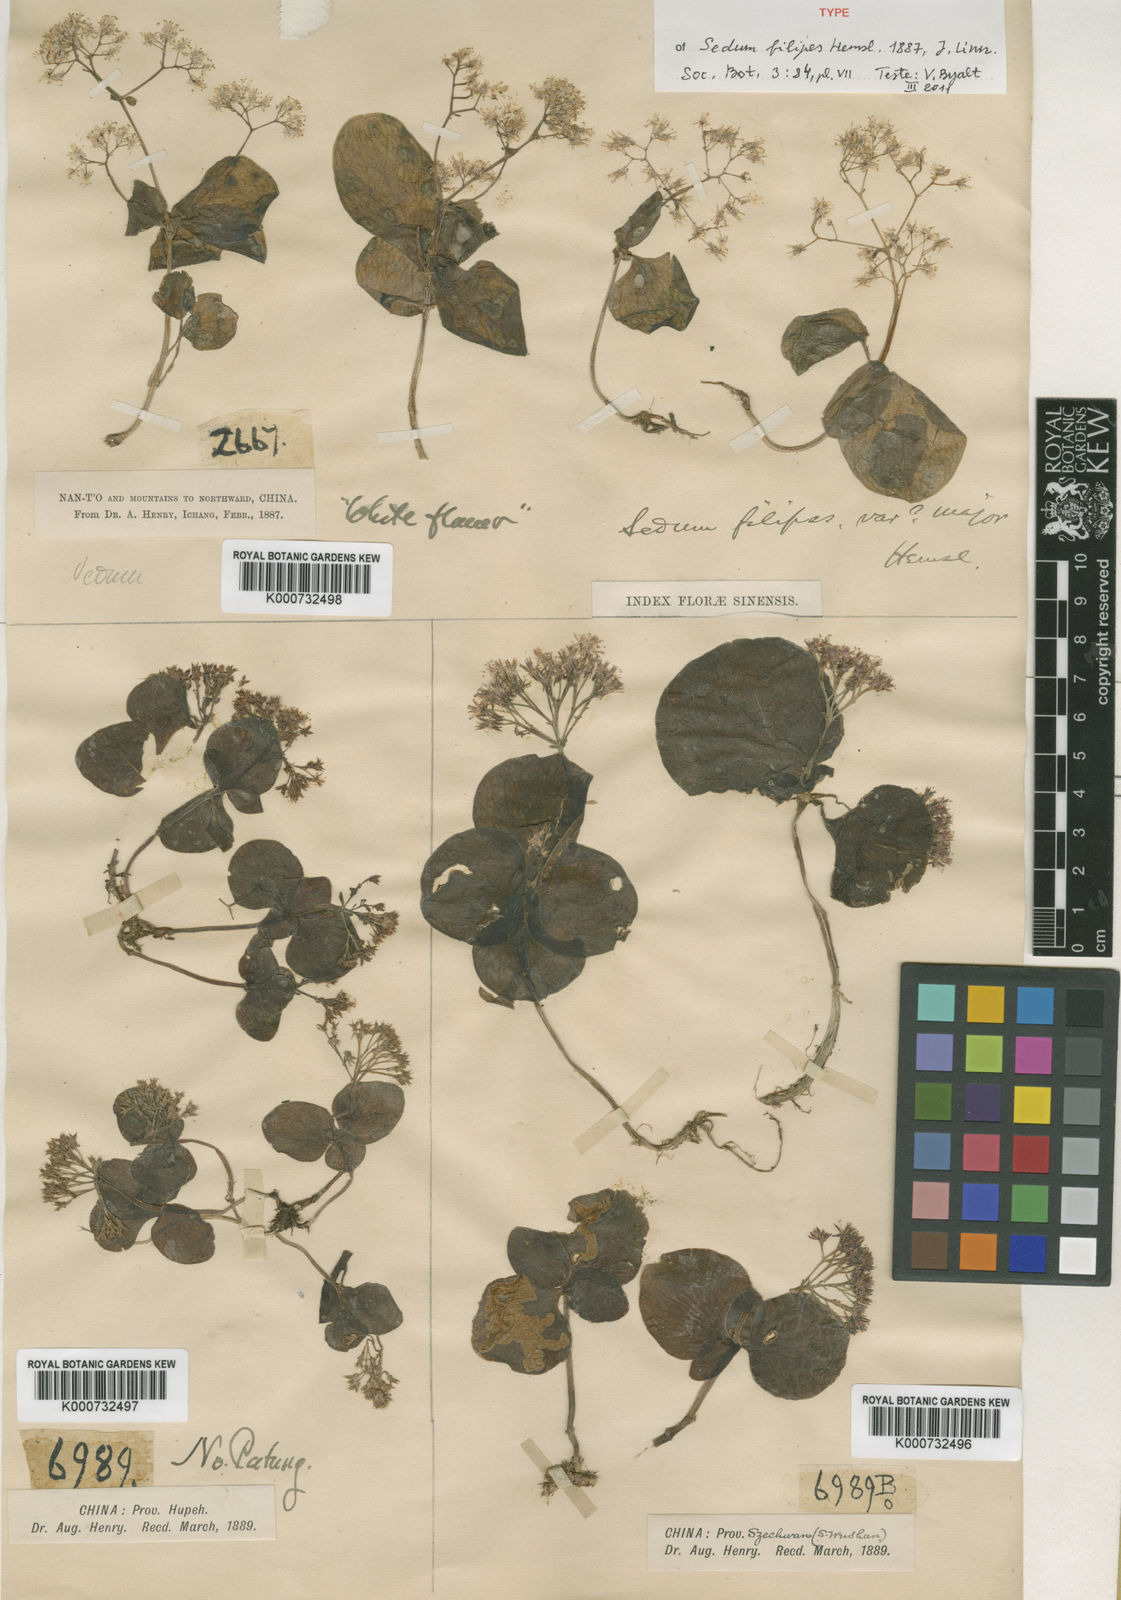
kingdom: Plantae
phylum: Tracheophyta
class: Magnoliopsida
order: Saxifragales
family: Crassulaceae
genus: Sedum
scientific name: Sedum filipes
